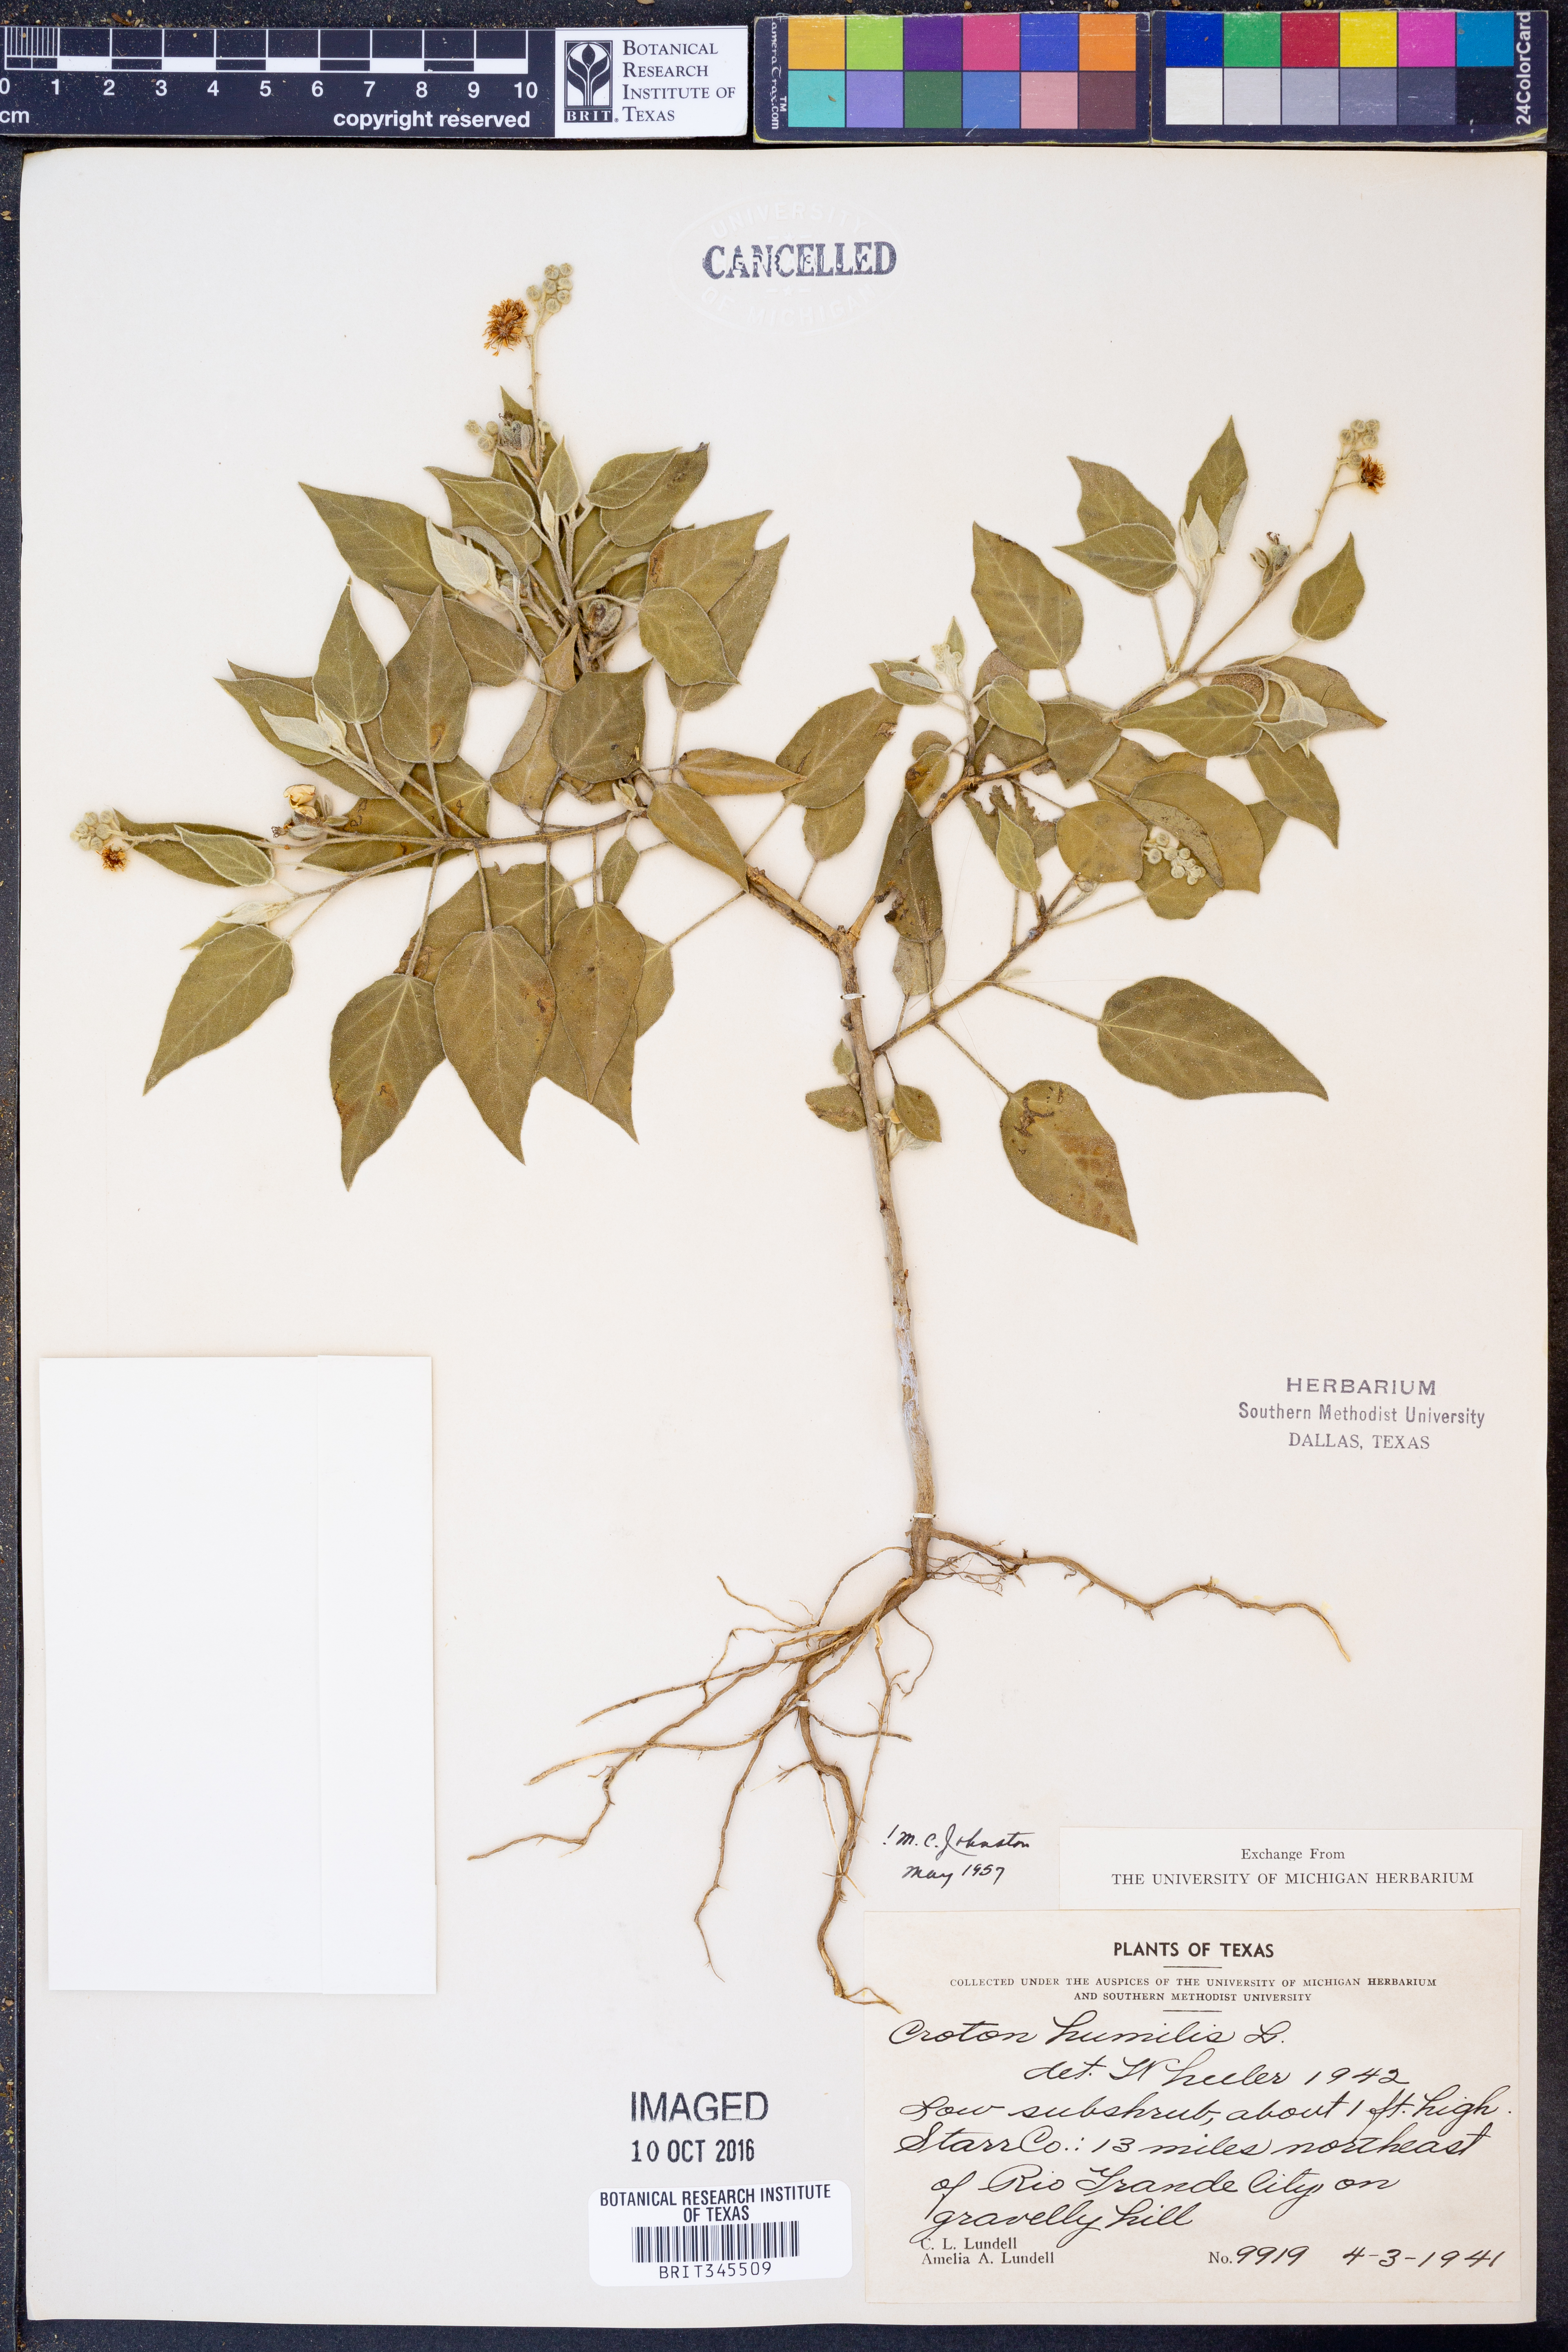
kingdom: Plantae
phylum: Tracheophyta
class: Magnoliopsida
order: Malpighiales
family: Euphorbiaceae
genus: Croton
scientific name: Croton humilis
